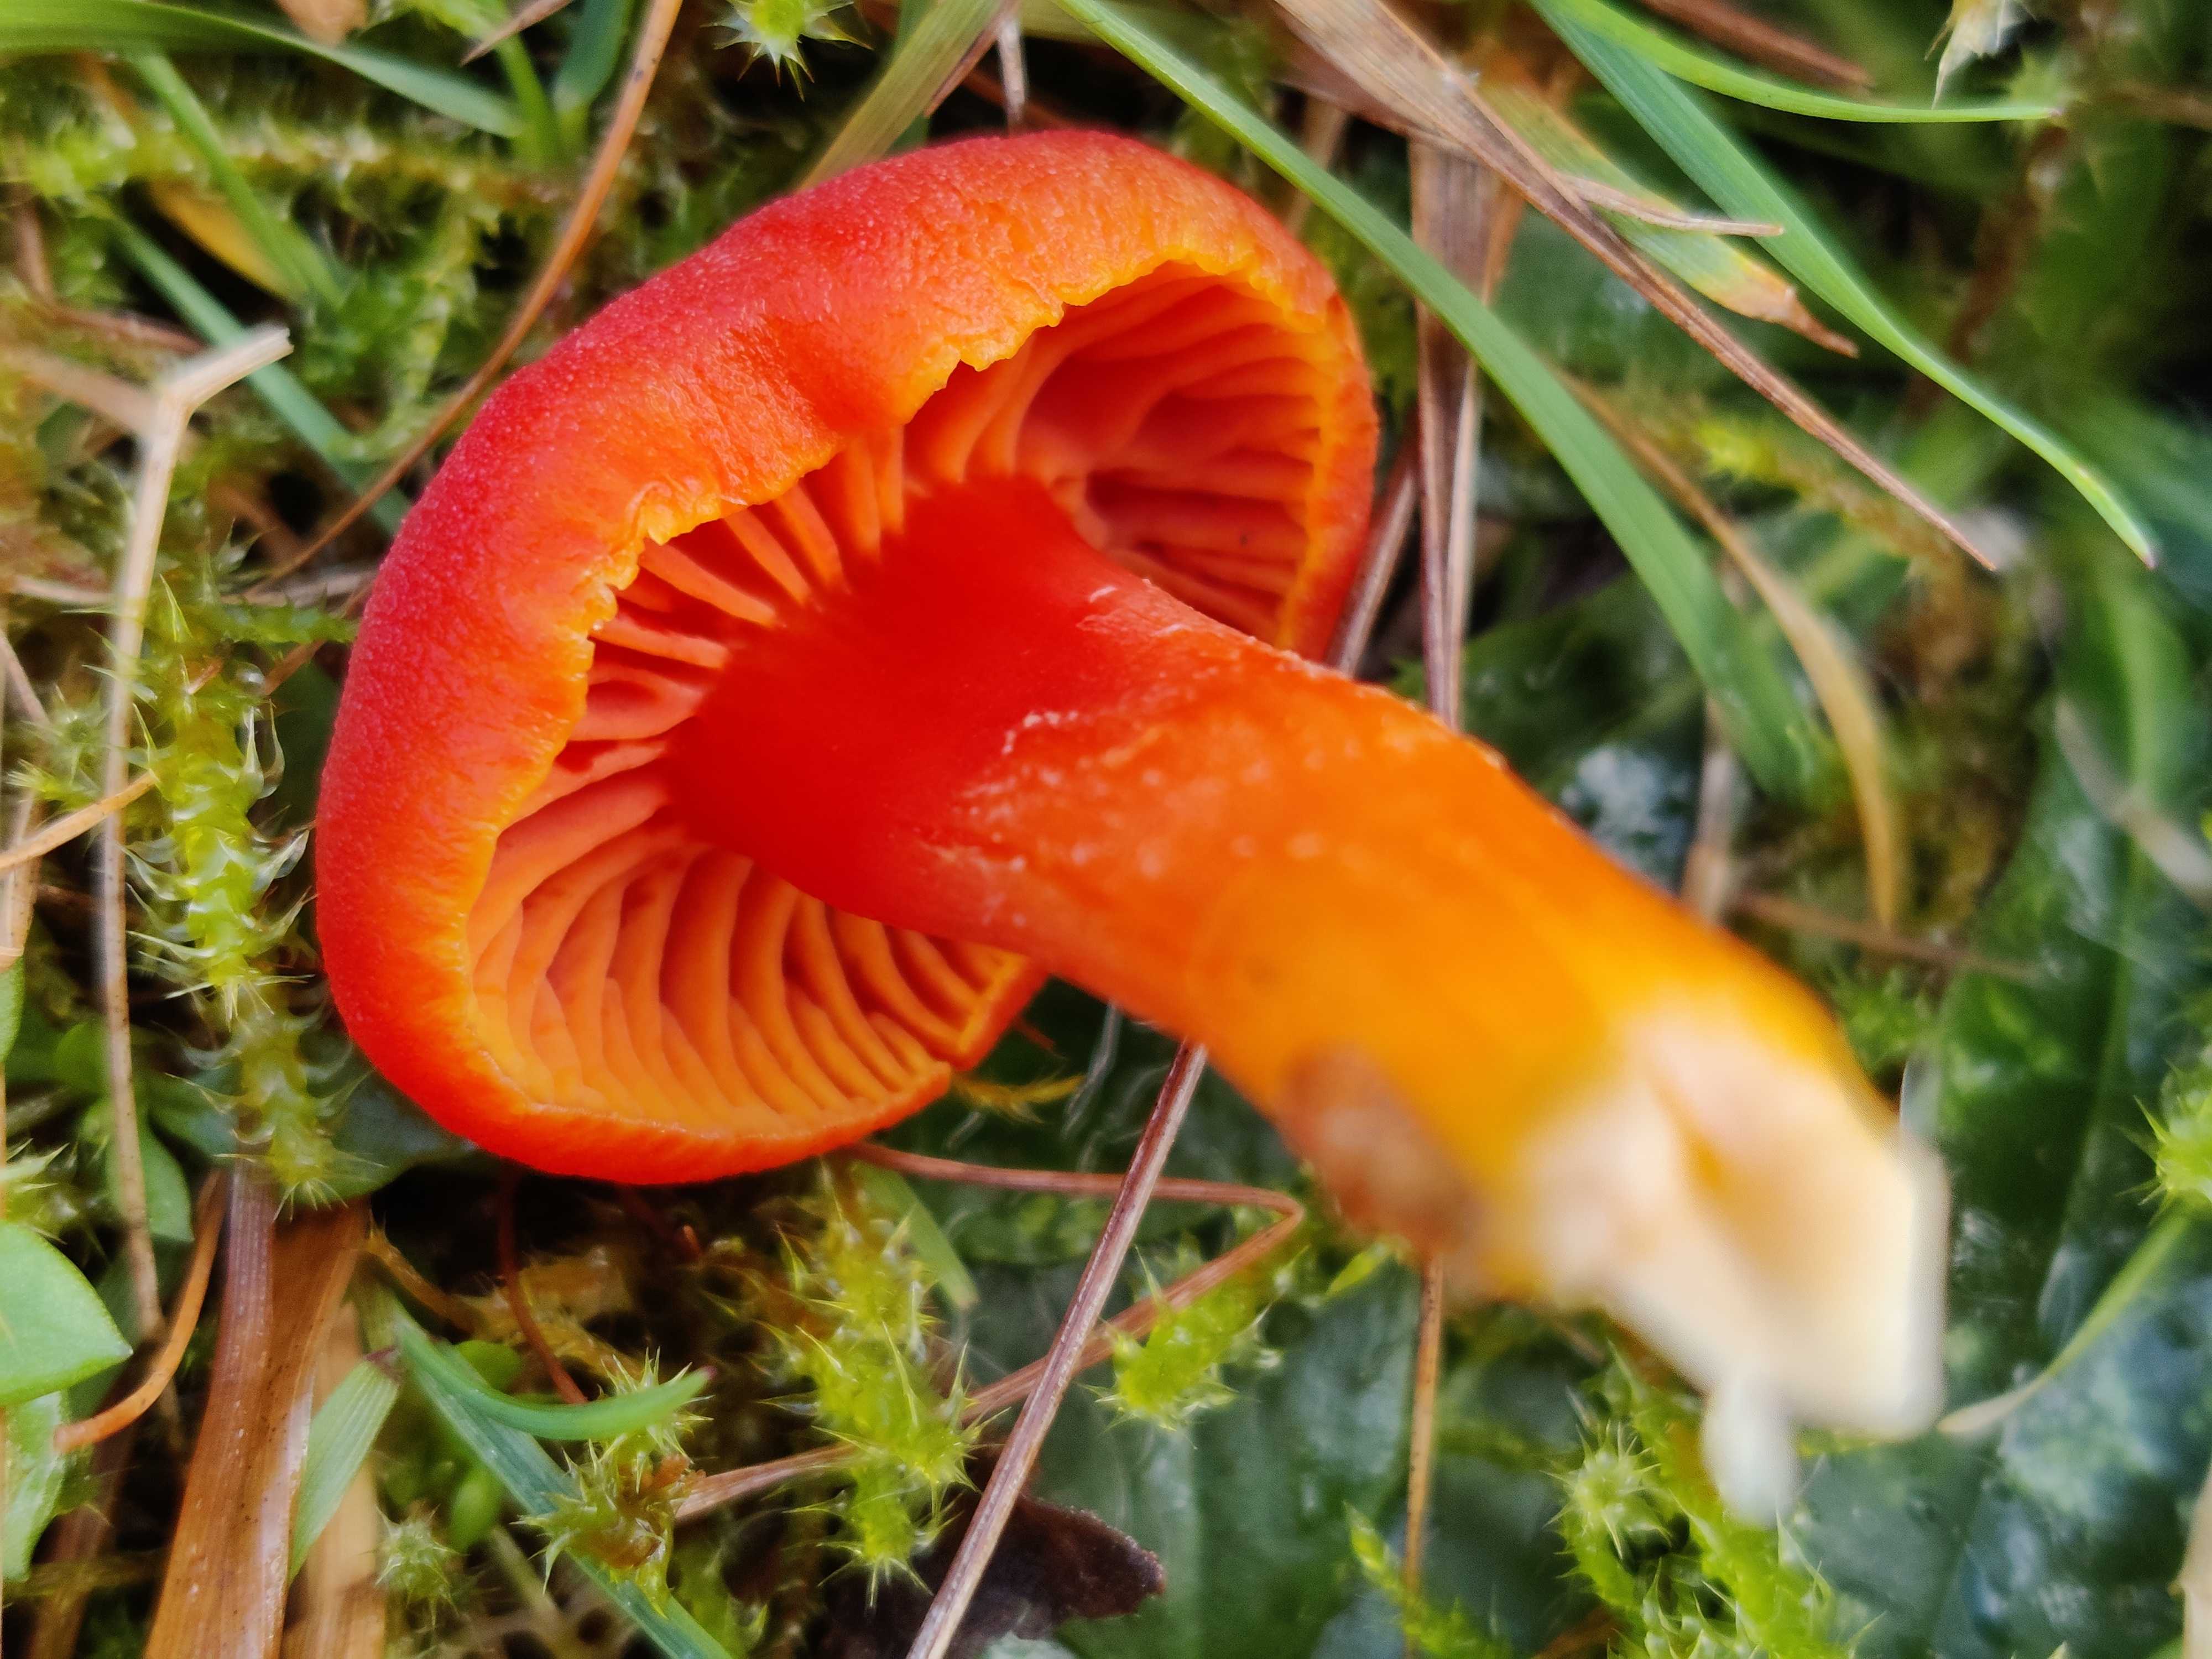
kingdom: Fungi
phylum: Basidiomycota
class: Agaricomycetes
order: Agaricales
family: Hygrophoraceae
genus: Hygrocybe
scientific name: Hygrocybe miniata
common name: mønje-vokshat
